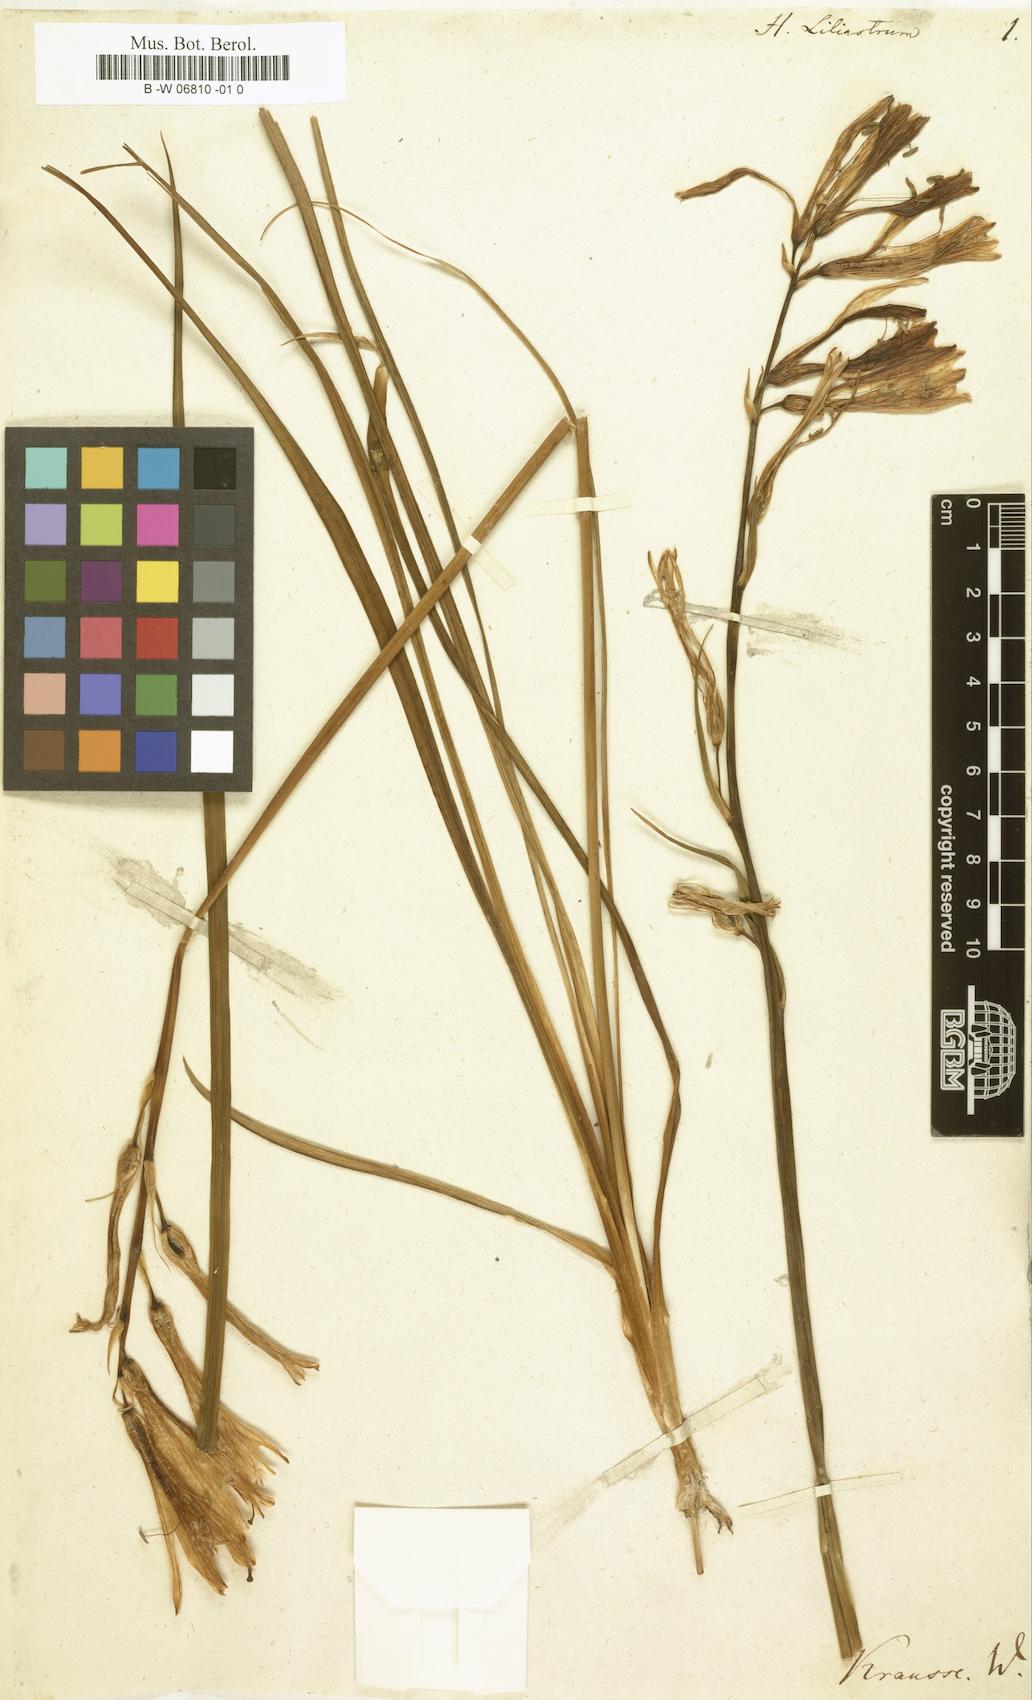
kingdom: Plantae
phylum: Tracheophyta
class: Liliopsida
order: Asparagales
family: Asparagaceae
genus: Paradisea
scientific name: Paradisea liliastrum
